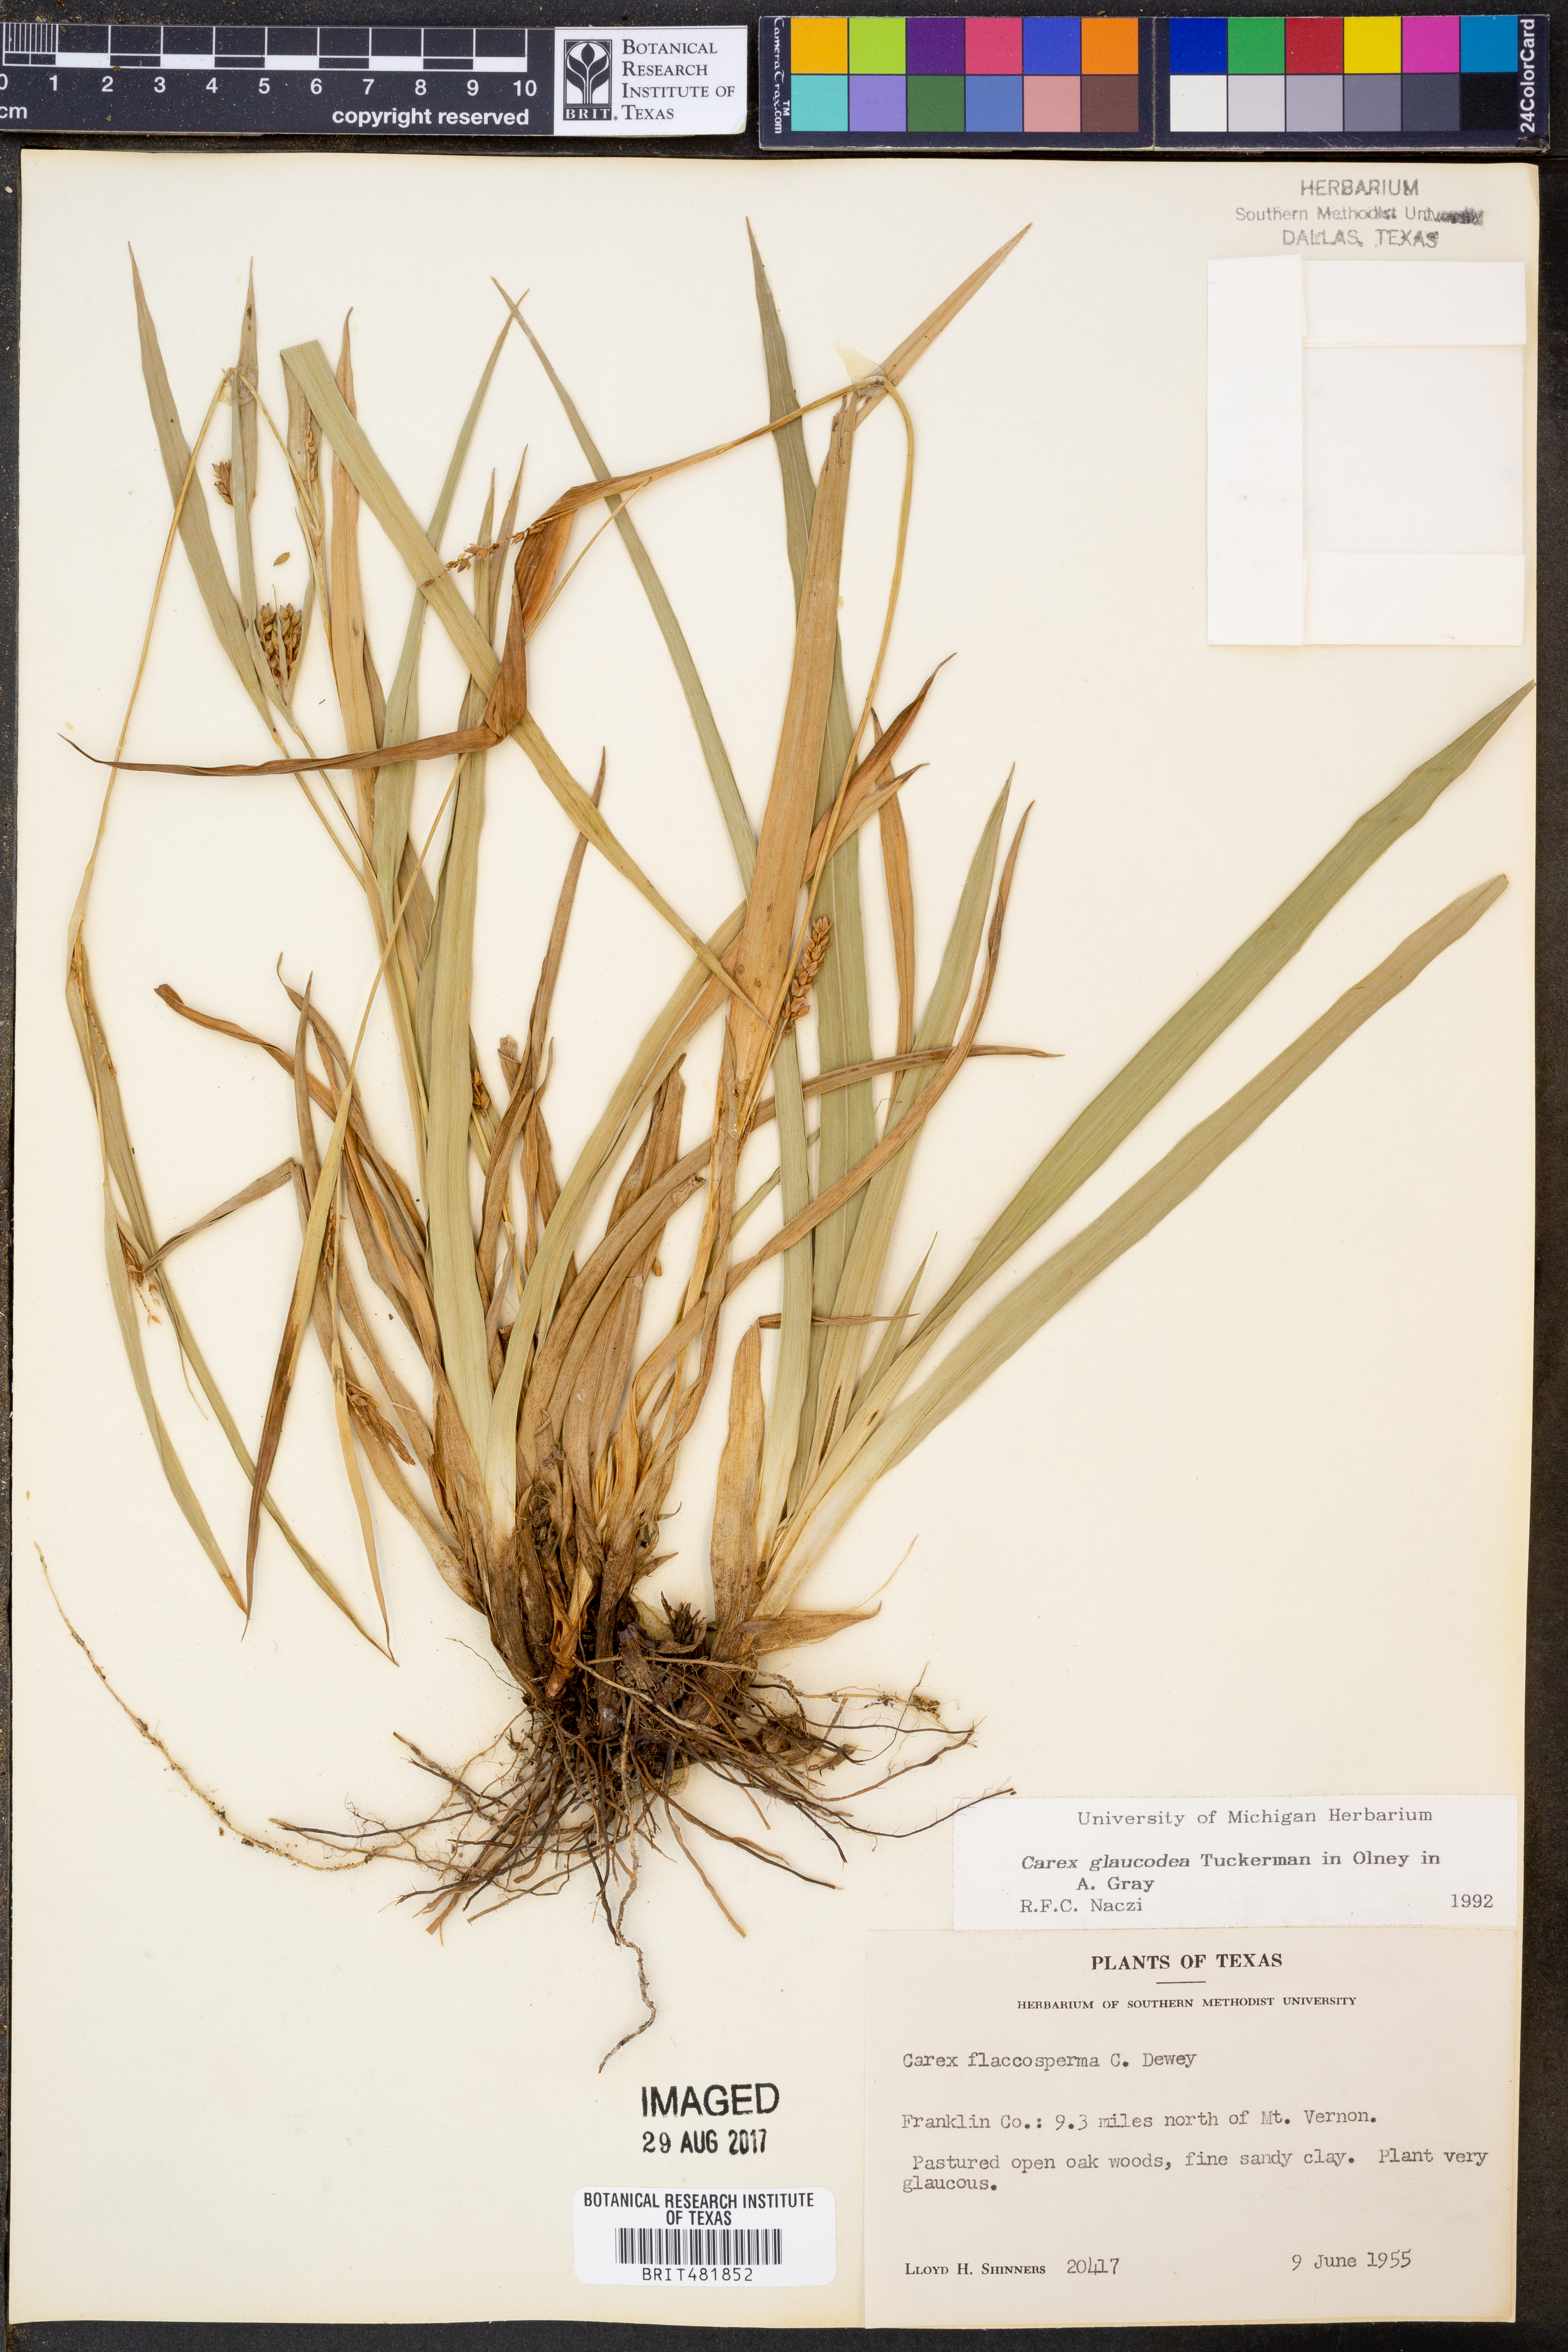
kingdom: Plantae
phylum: Tracheophyta
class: Liliopsida
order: Poales
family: Cyperaceae
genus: Carex
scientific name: Carex glaucodea
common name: Blue sedge
